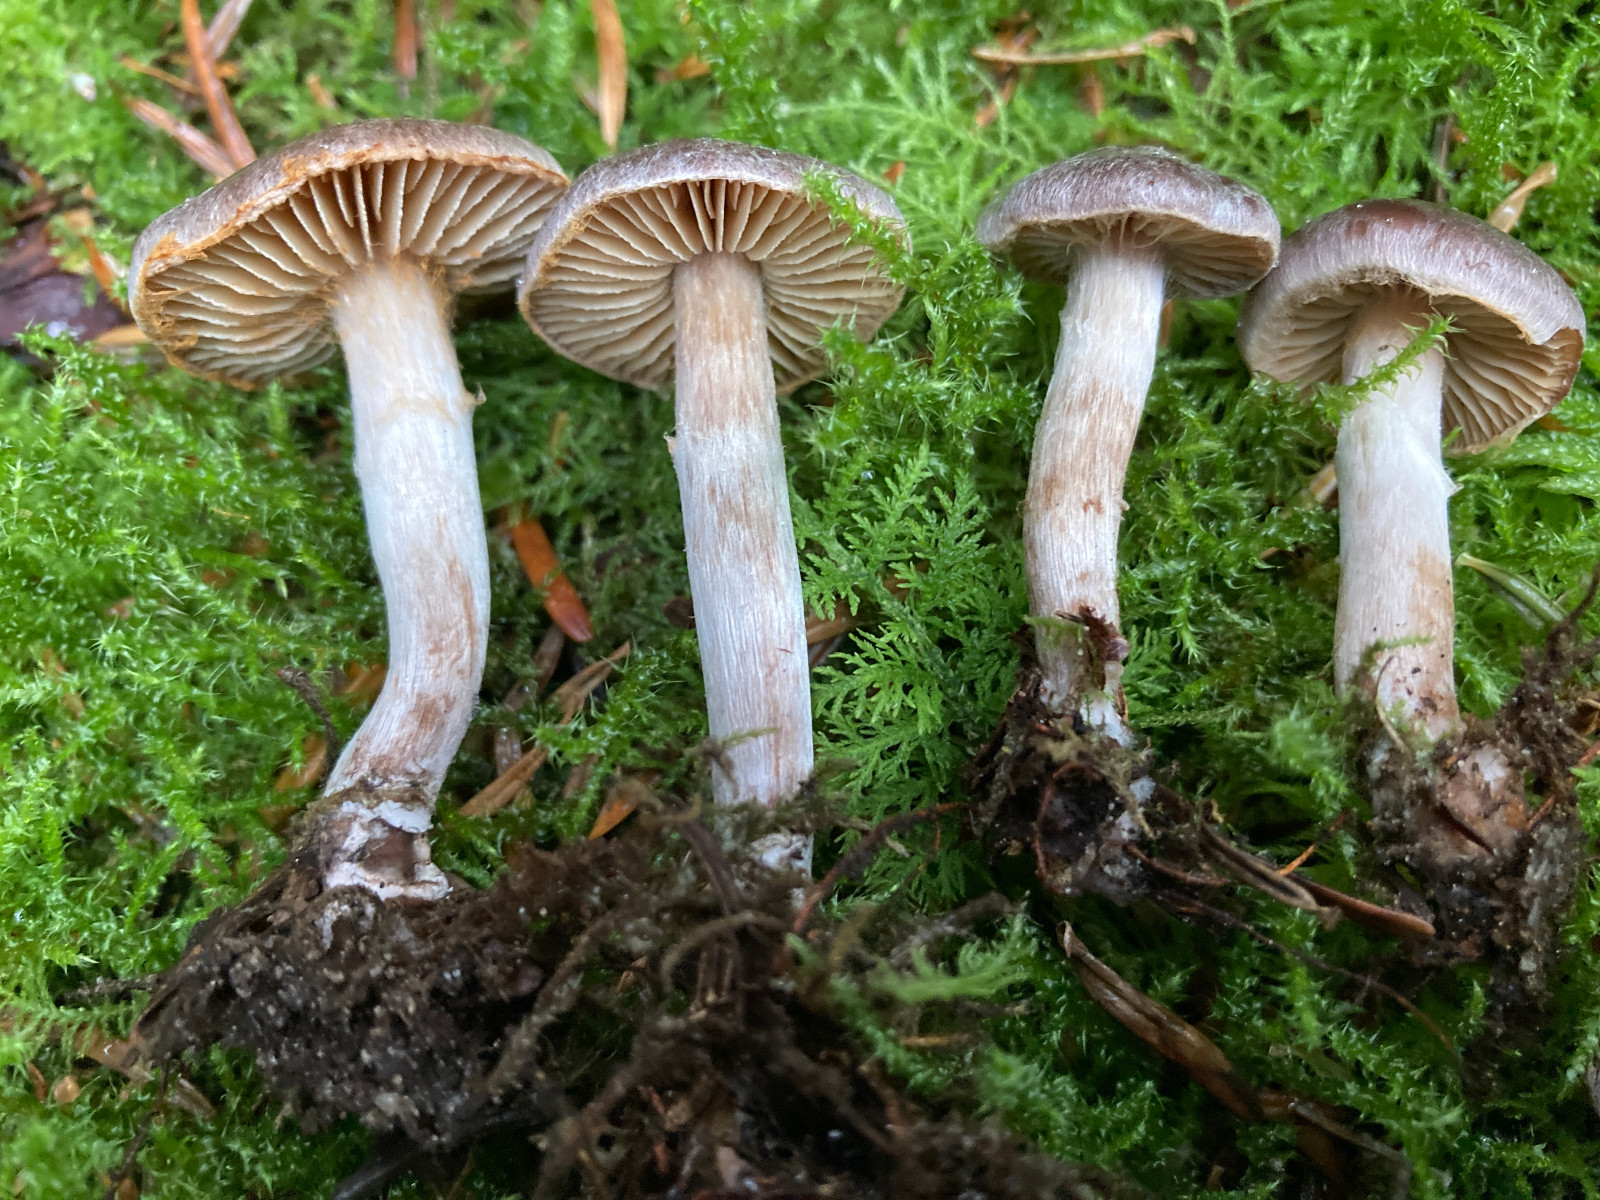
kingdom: Fungi
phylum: Basidiomycota
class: Agaricomycetes
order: Agaricales
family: Cortinariaceae
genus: Cortinarius
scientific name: Cortinarius
